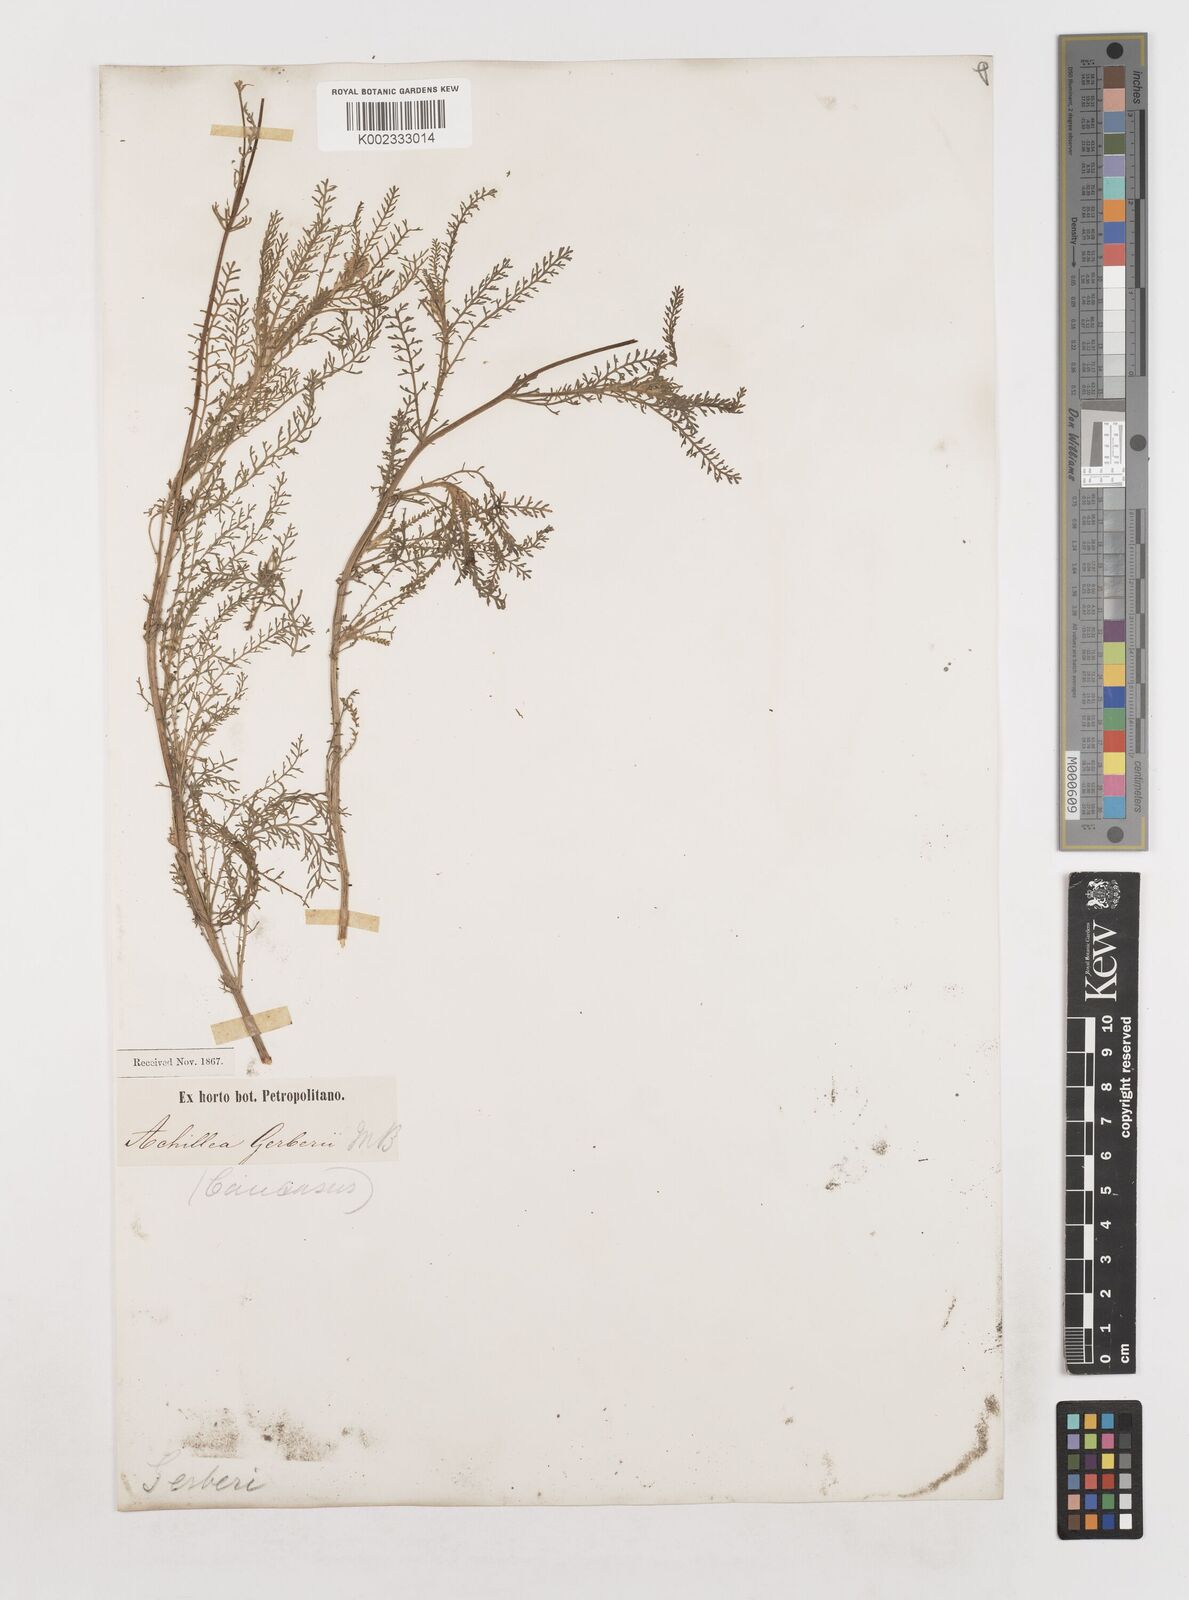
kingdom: Plantae
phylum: Tracheophyta
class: Magnoliopsida
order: Asterales
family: Asteraceae
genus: Achillea
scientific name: Achillea nobilis
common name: Noble yarrow
